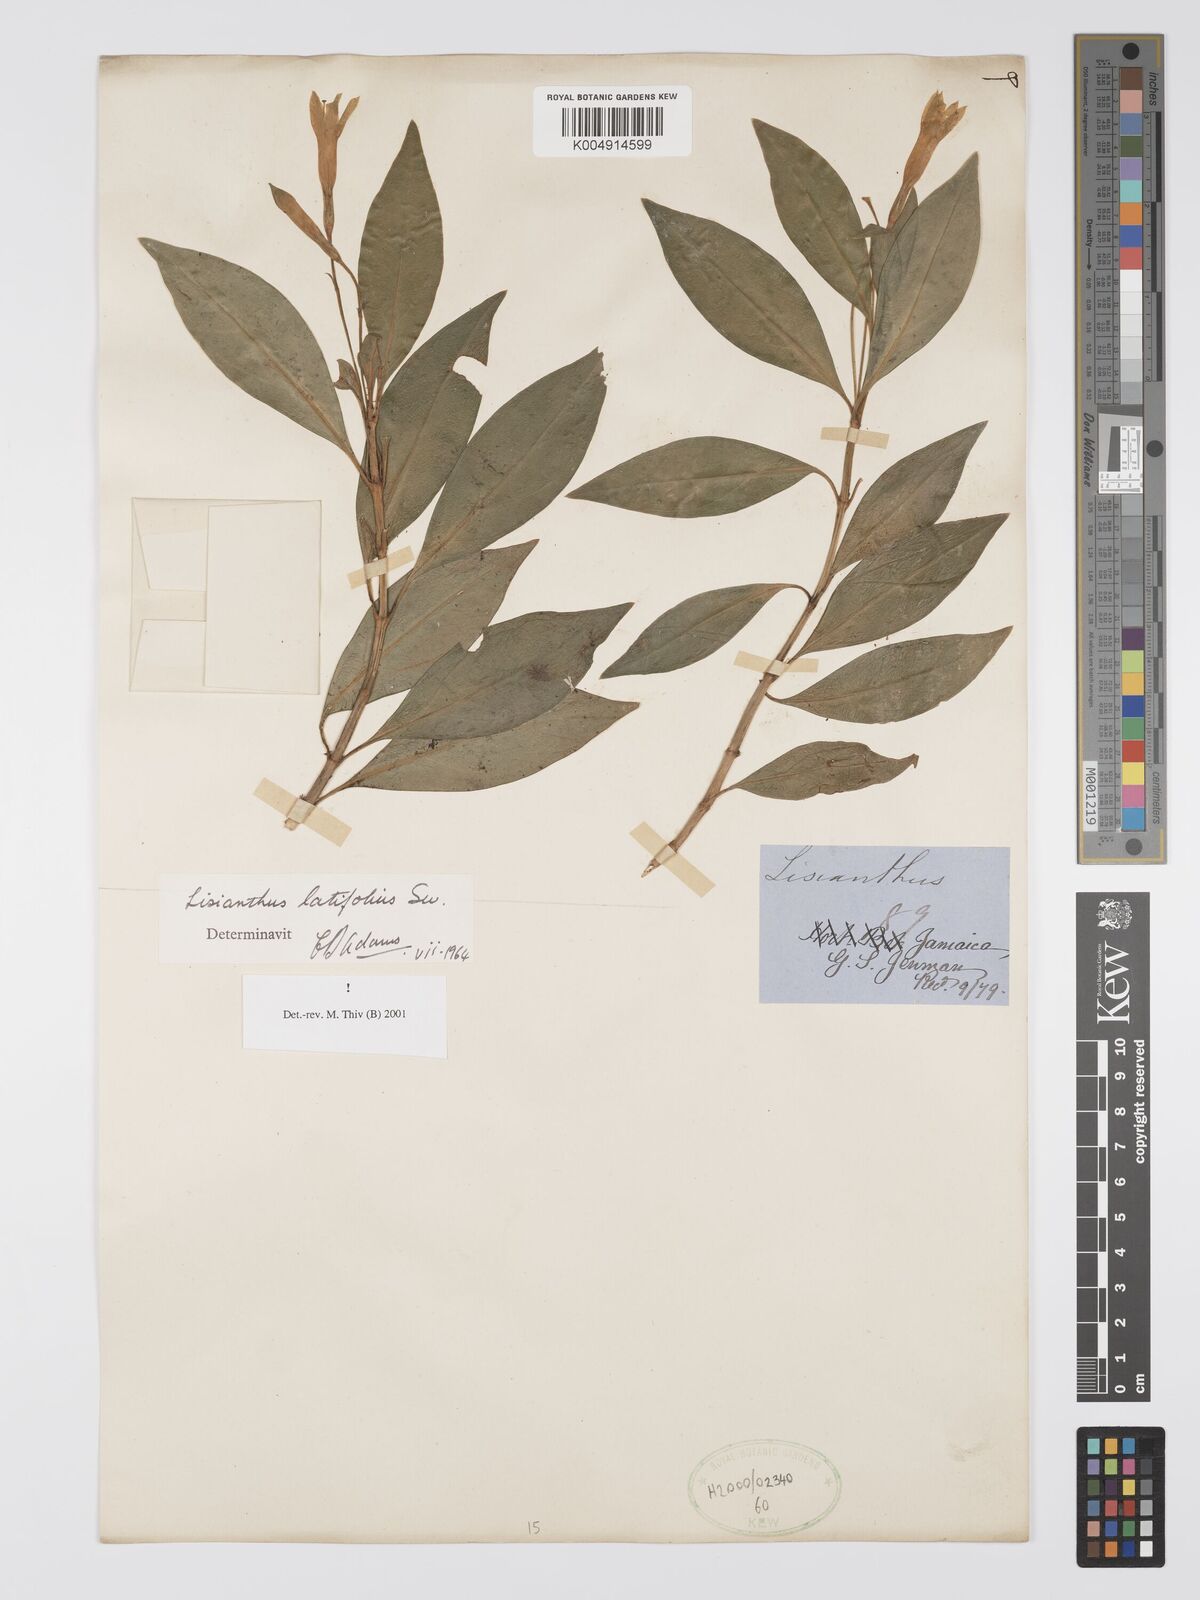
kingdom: Plantae
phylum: Tracheophyta
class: Magnoliopsida
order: Gentianales
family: Gentianaceae
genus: Lisianthus
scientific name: Lisianthus latifolius
